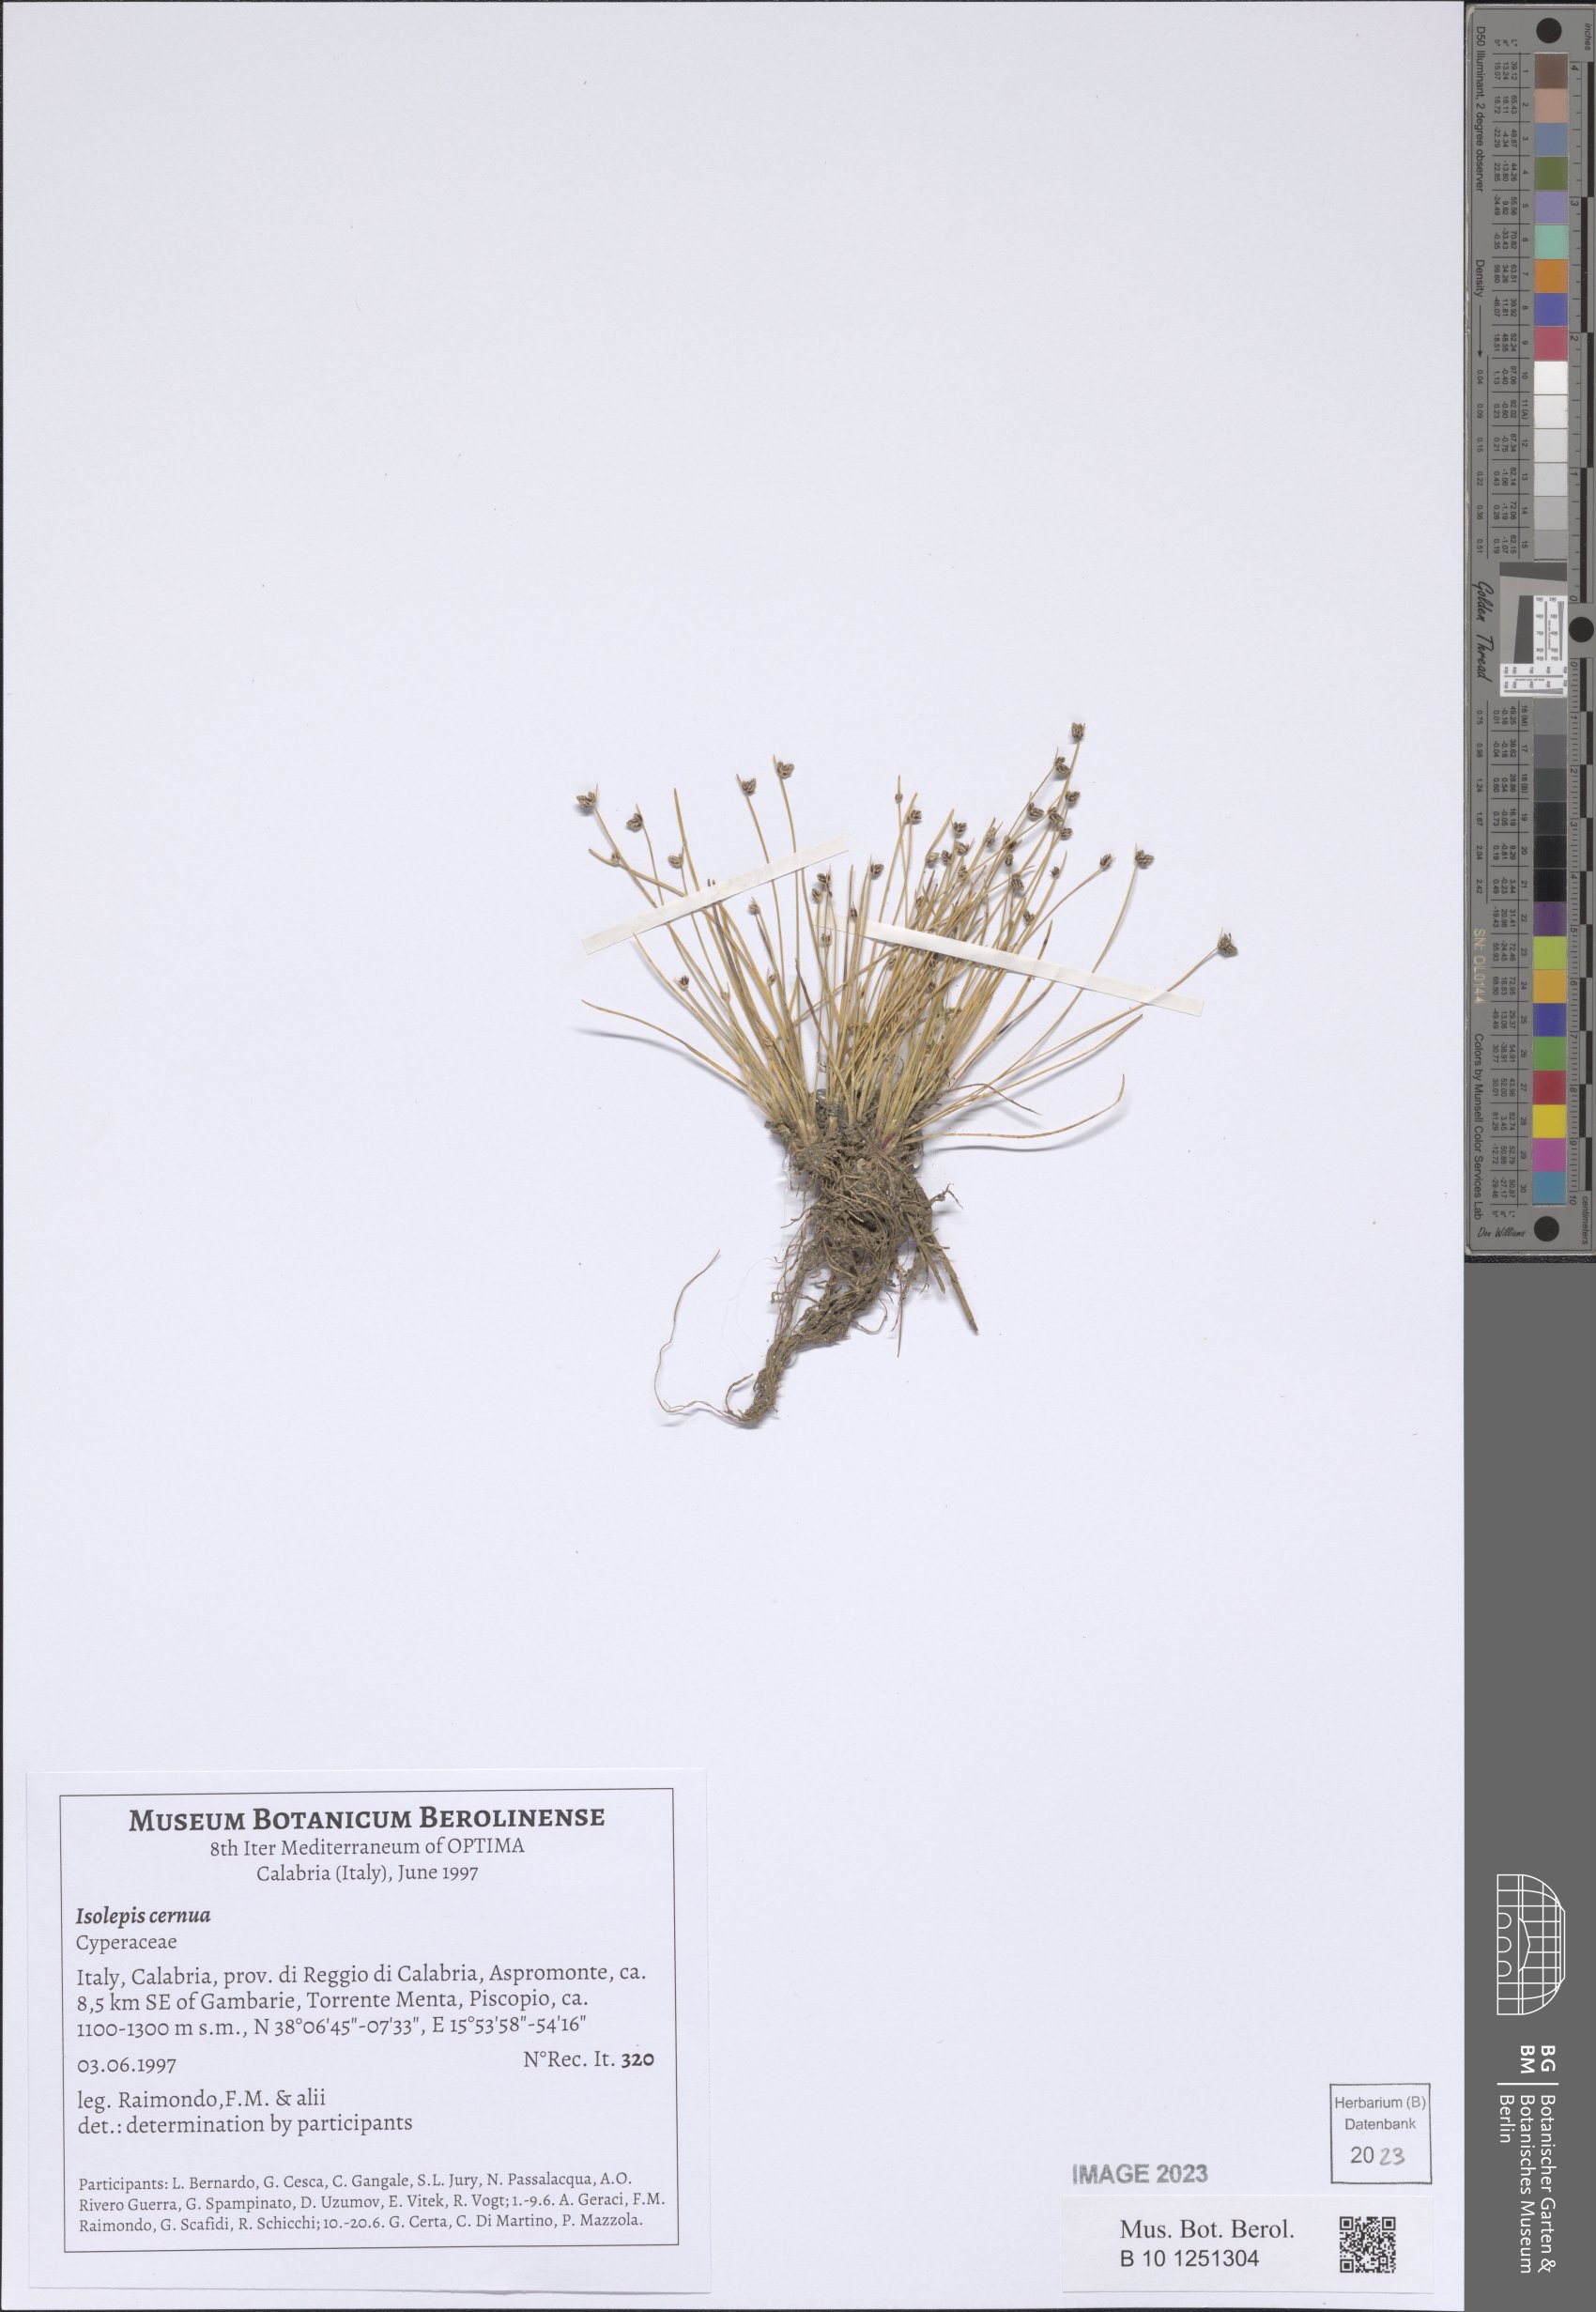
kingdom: Plantae
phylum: Tracheophyta
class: Liliopsida
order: Poales
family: Cyperaceae
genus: Isolepis
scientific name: Isolepis cernua
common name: Slender club-rush
